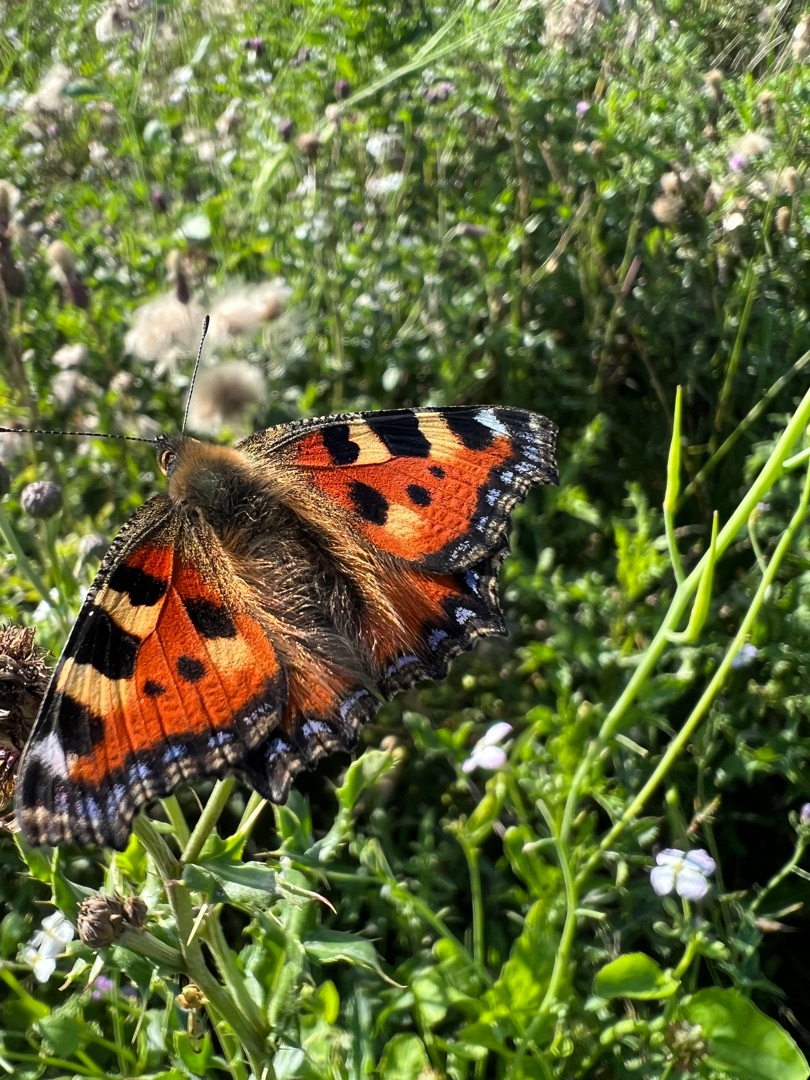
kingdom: Animalia
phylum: Arthropoda
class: Insecta
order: Lepidoptera
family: Nymphalidae
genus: Aglais
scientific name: Aglais urticae
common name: Nældens takvinge
